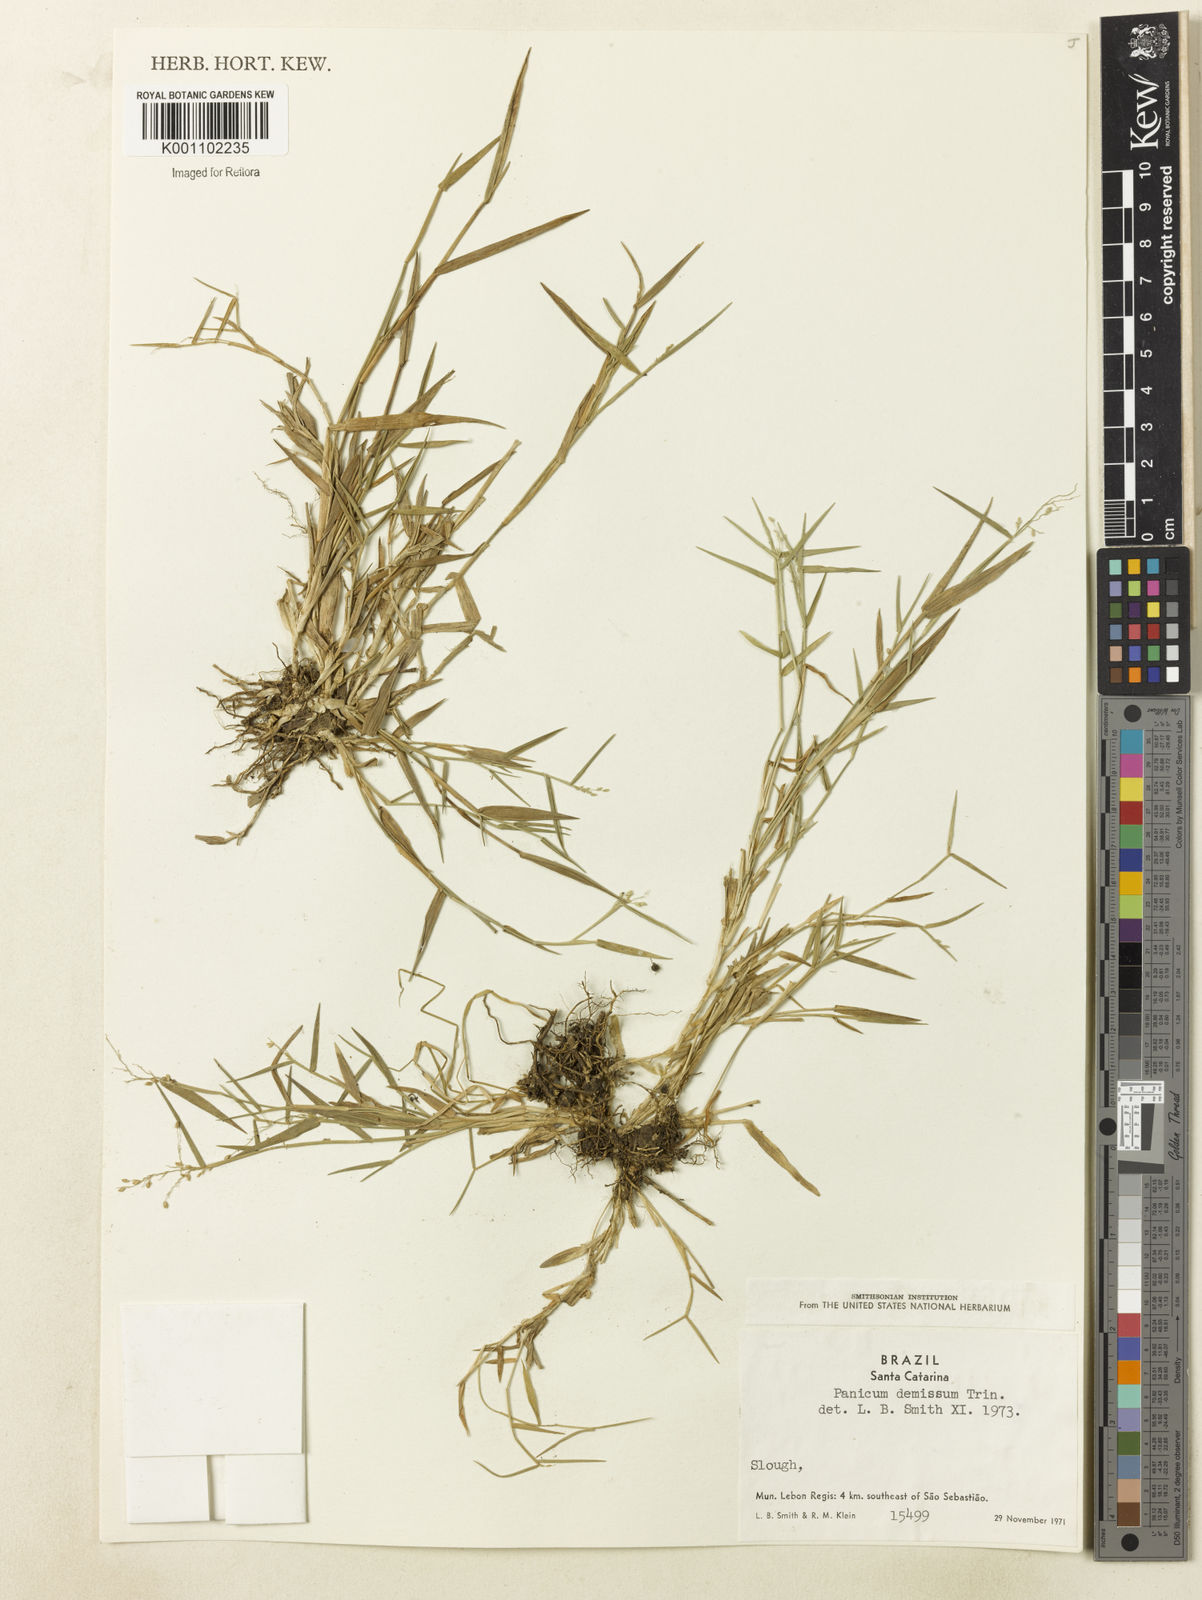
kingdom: Plantae
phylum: Tracheophyta
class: Liliopsida
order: Poales
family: Poaceae
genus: Dichanthelium
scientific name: Dichanthelium sabulorum
